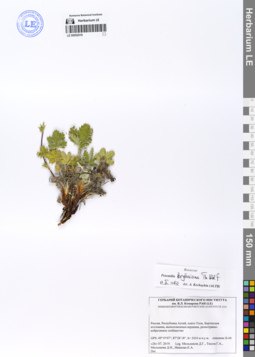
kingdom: Plantae
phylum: Tracheophyta
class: Magnoliopsida
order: Rosales
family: Rosaceae
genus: Potentilla
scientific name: Potentilla kryloviana
